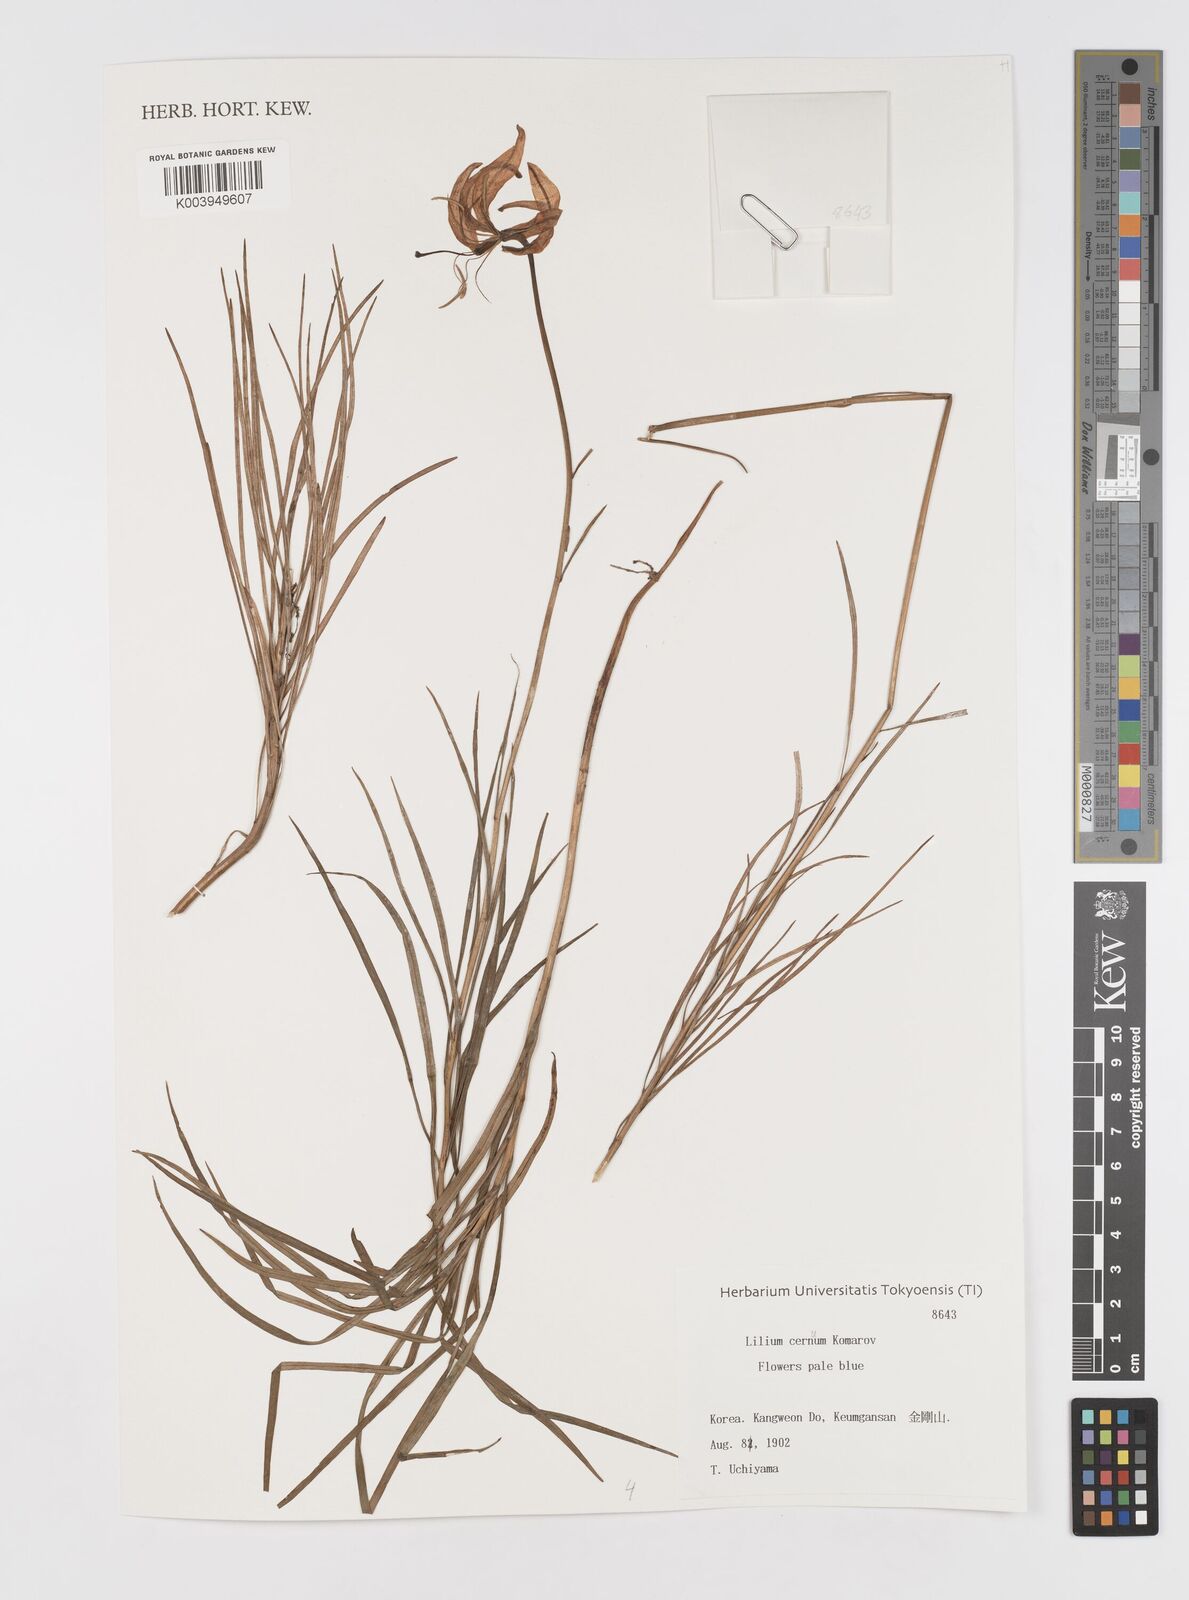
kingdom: Plantae
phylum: Tracheophyta
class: Liliopsida
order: Liliales
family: Liliaceae
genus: Lilium
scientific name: Lilium cernuum
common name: Nodding lily
